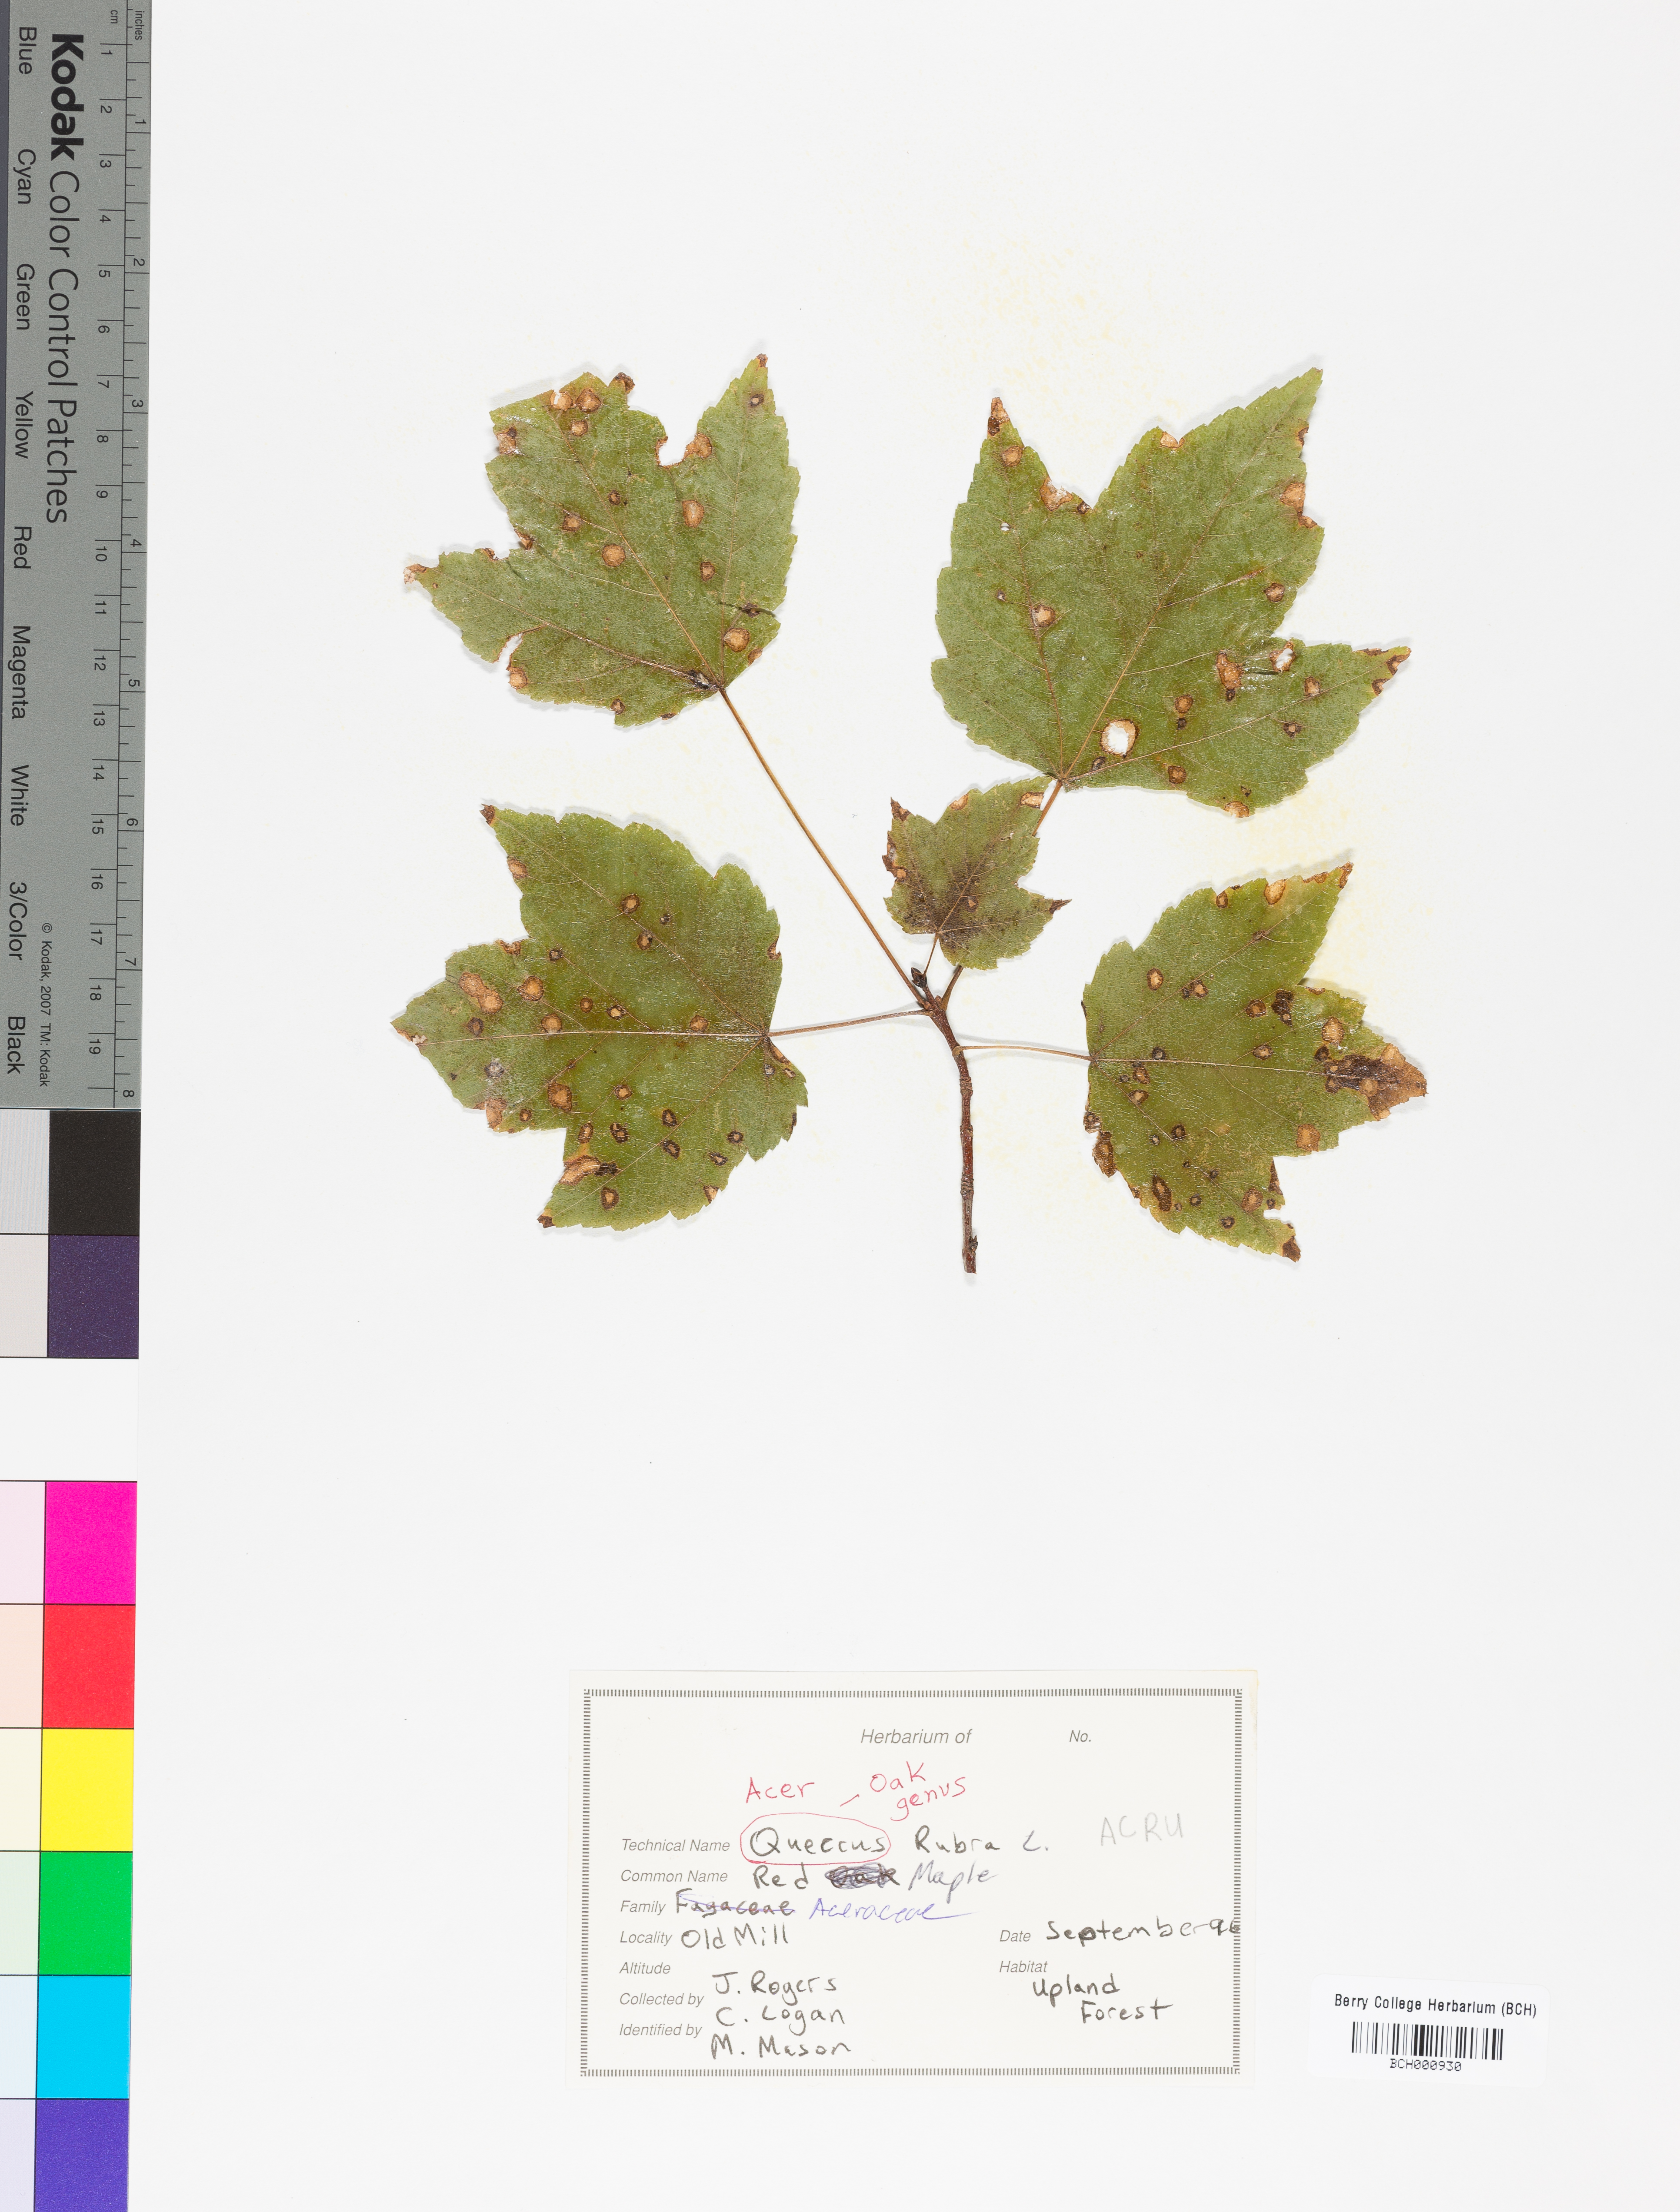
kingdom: Plantae
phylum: Tracheophyta
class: Magnoliopsida
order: Sapindales
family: Sapindaceae
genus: Acer
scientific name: Acer rubrum
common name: Red maple
